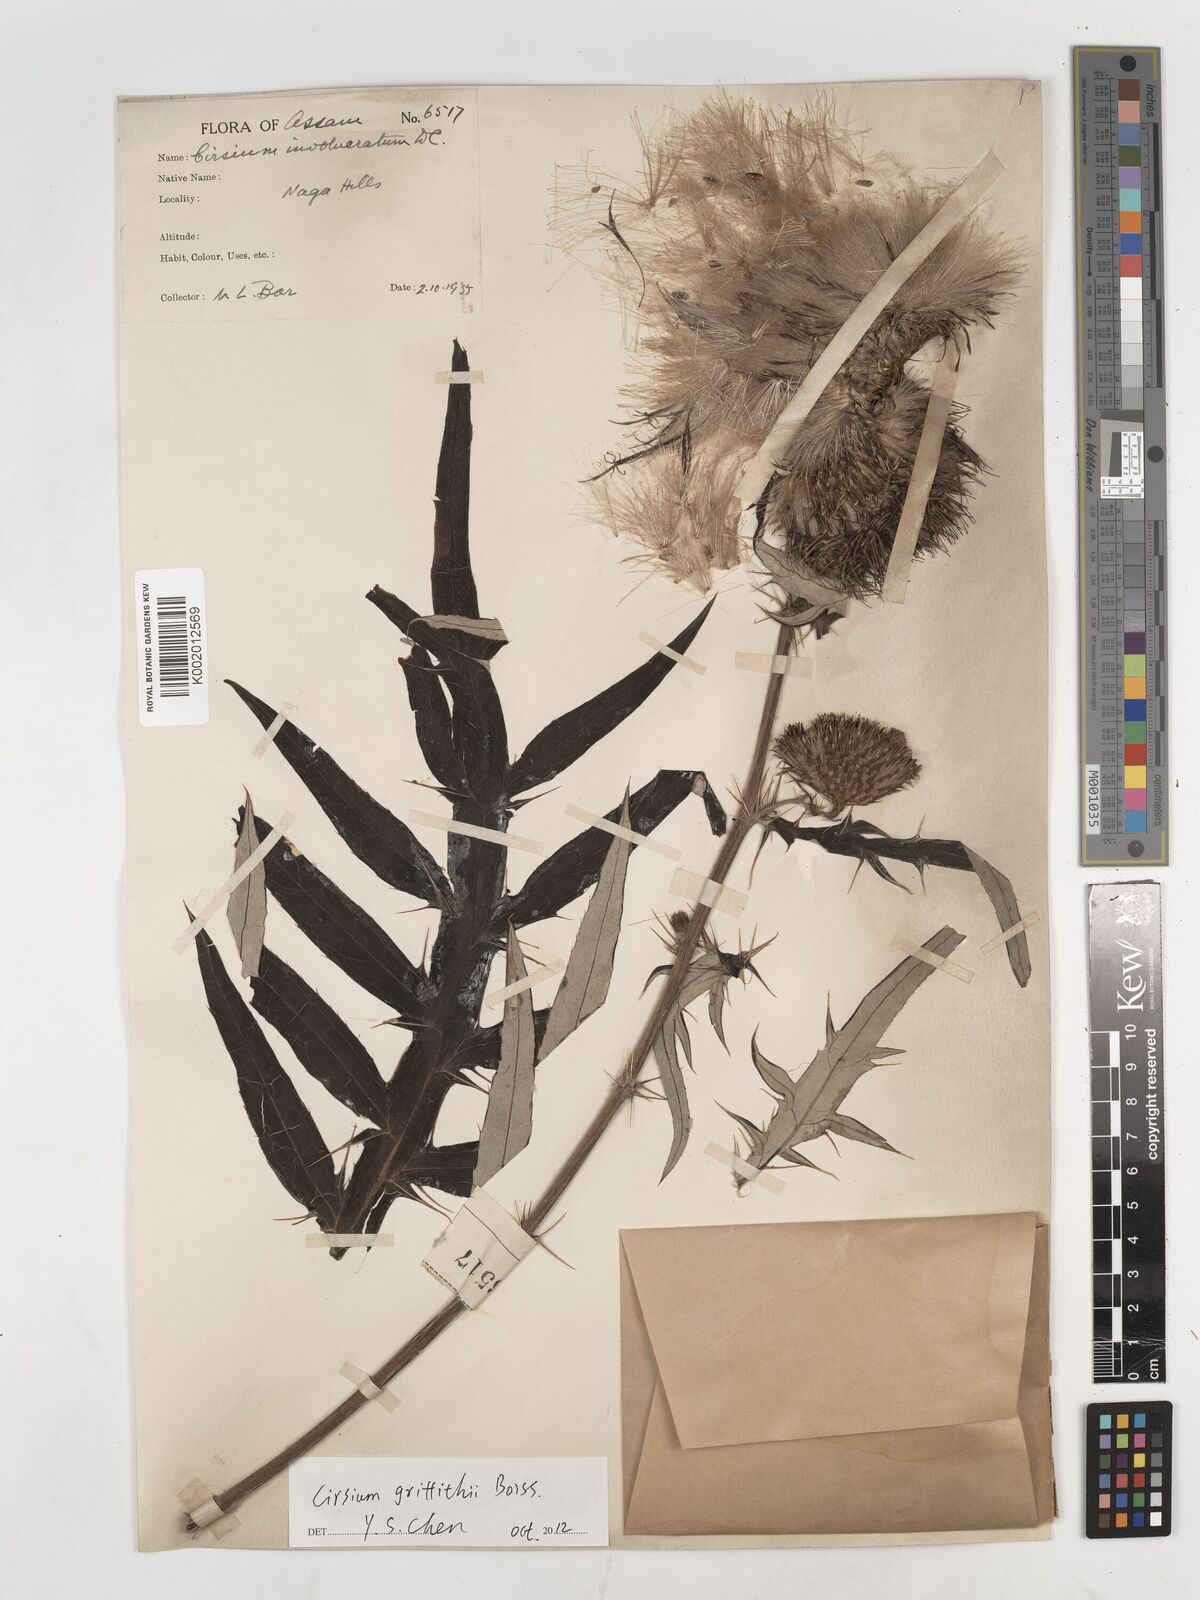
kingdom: Plantae
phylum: Tracheophyta
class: Magnoliopsida
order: Asterales
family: Asteraceae
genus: Lophiolepis
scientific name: Lophiolepis griffithii
